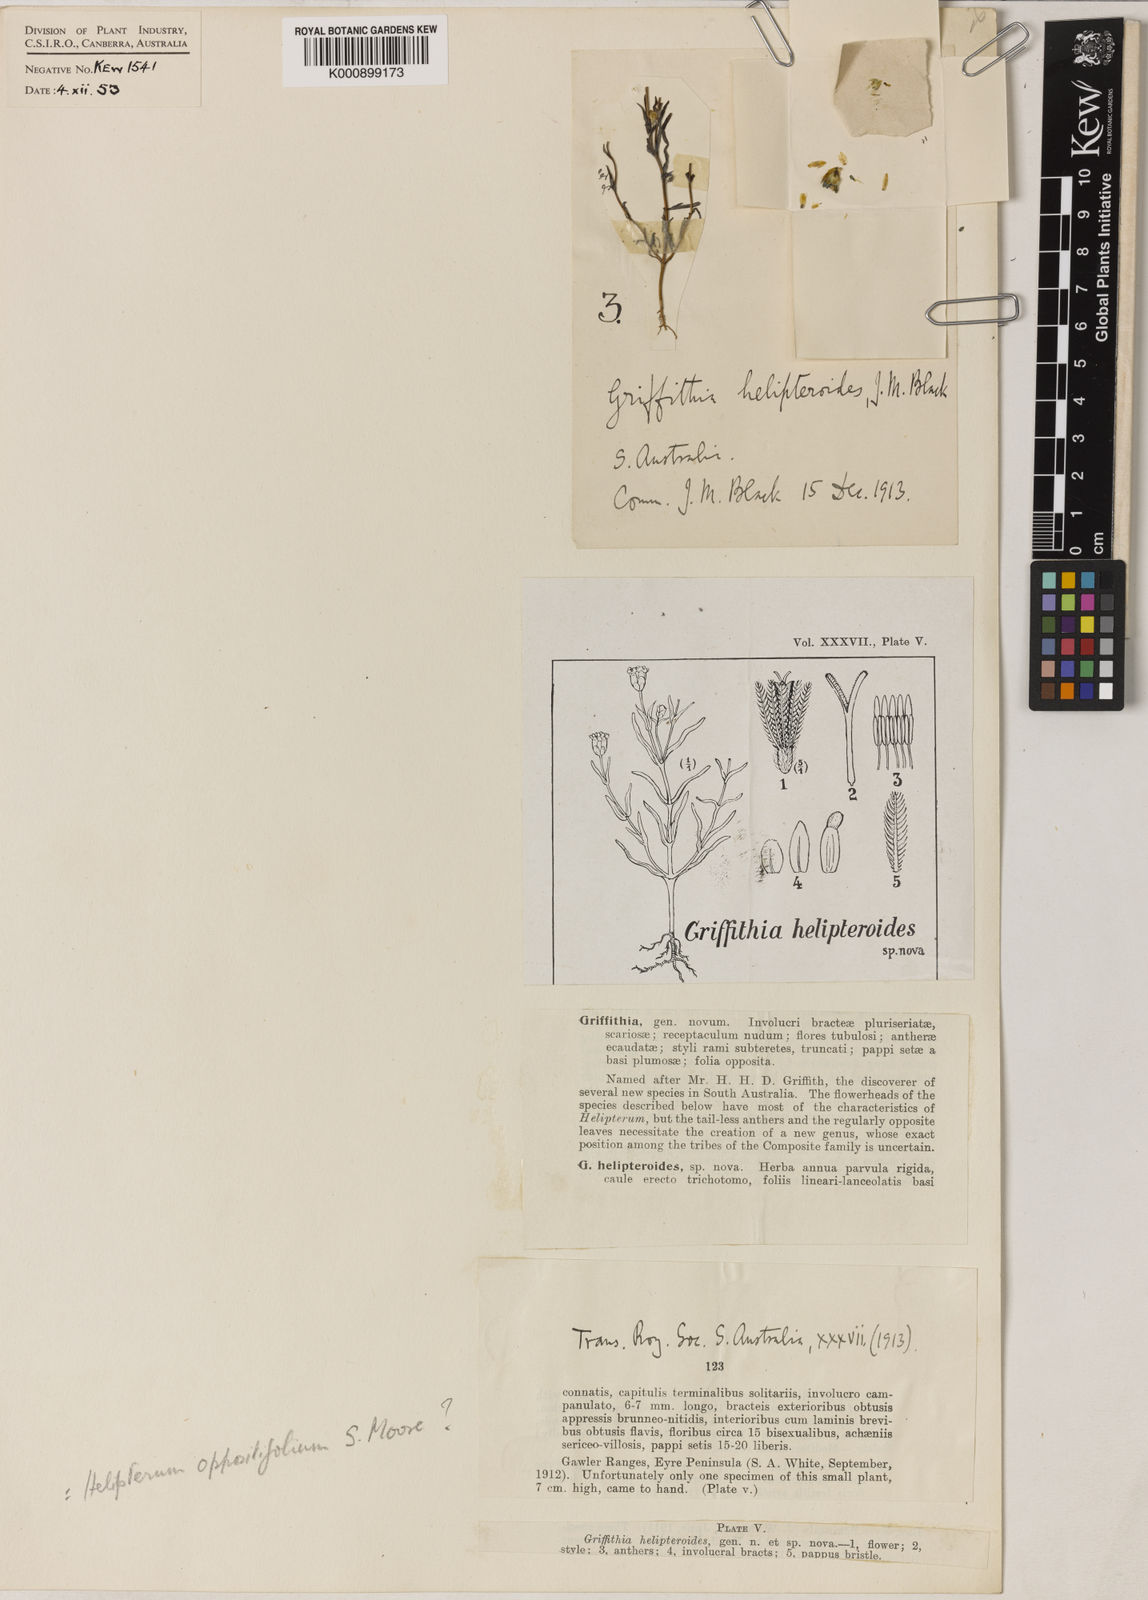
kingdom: Plantae
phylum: Tracheophyta
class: Magnoliopsida
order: Asterales
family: Asteraceae
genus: Rhodanthe
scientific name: Rhodanthe oppositifolia
